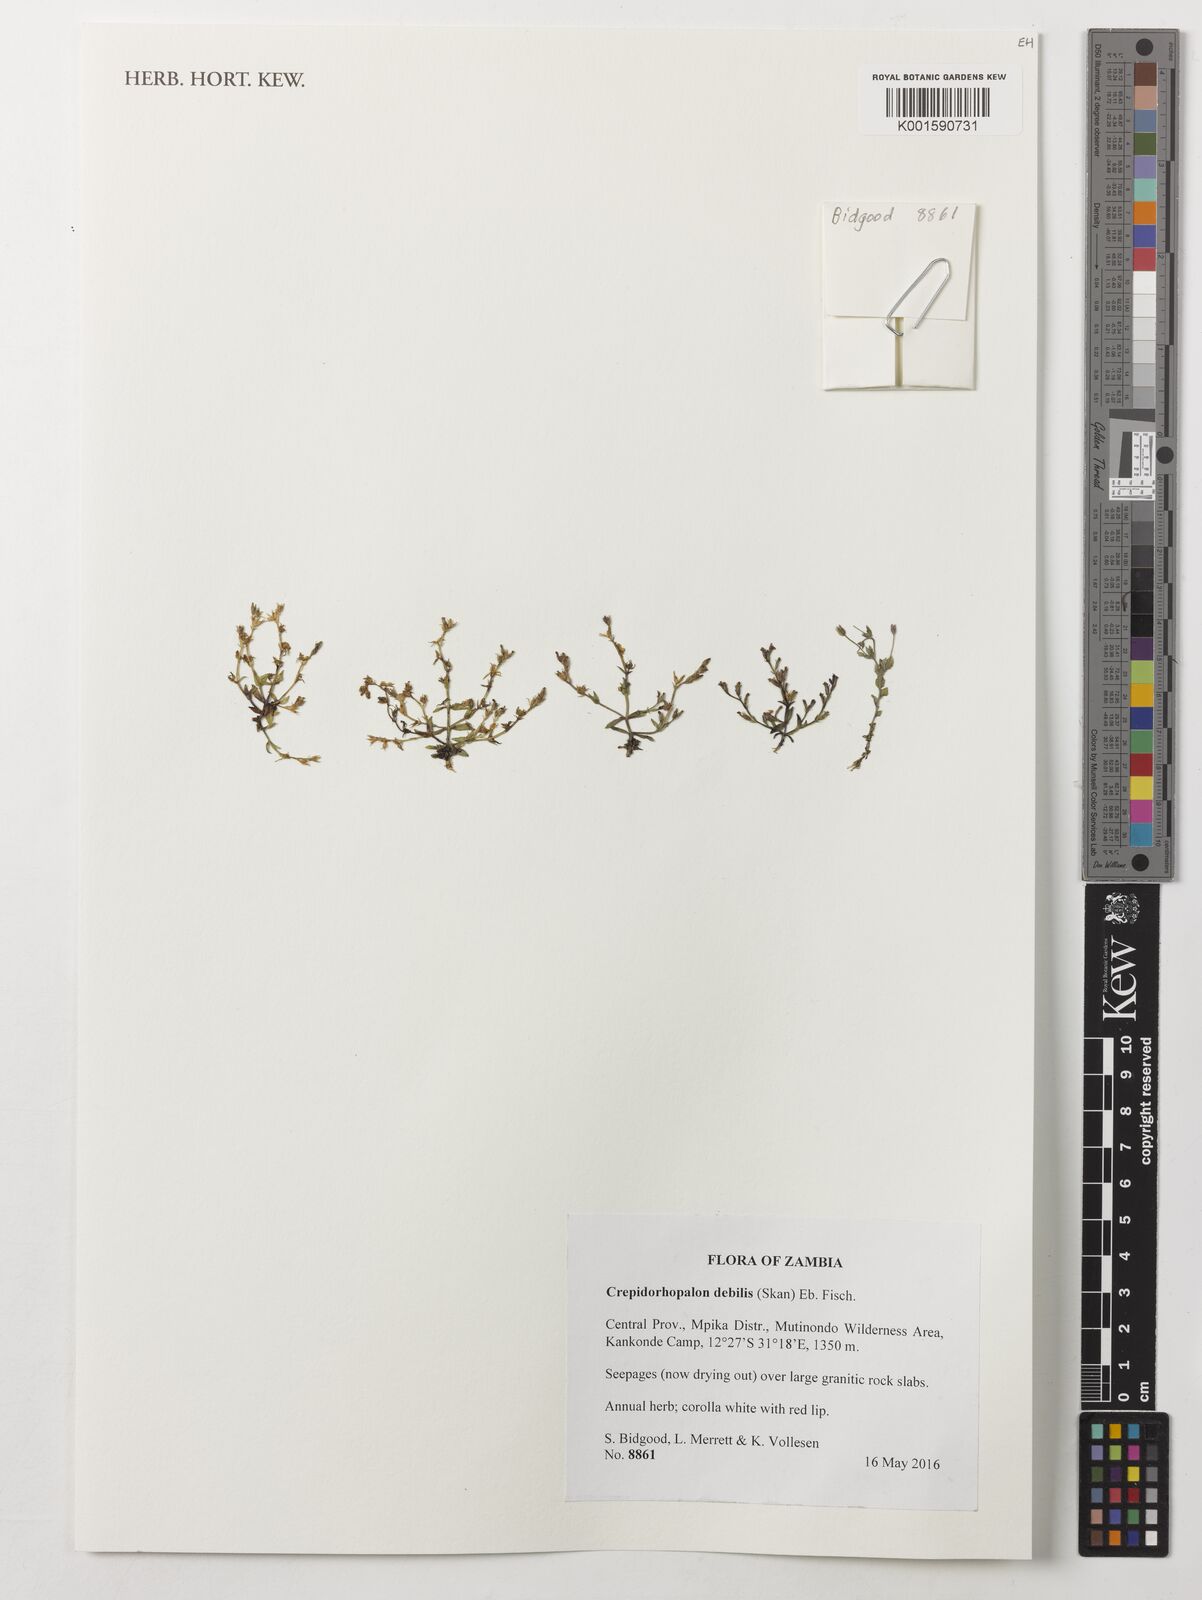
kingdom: Plantae
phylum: Tracheophyta
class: Magnoliopsida
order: Lamiales
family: Linderniaceae
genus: Crepidorhopalon
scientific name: Crepidorhopalon debilis
